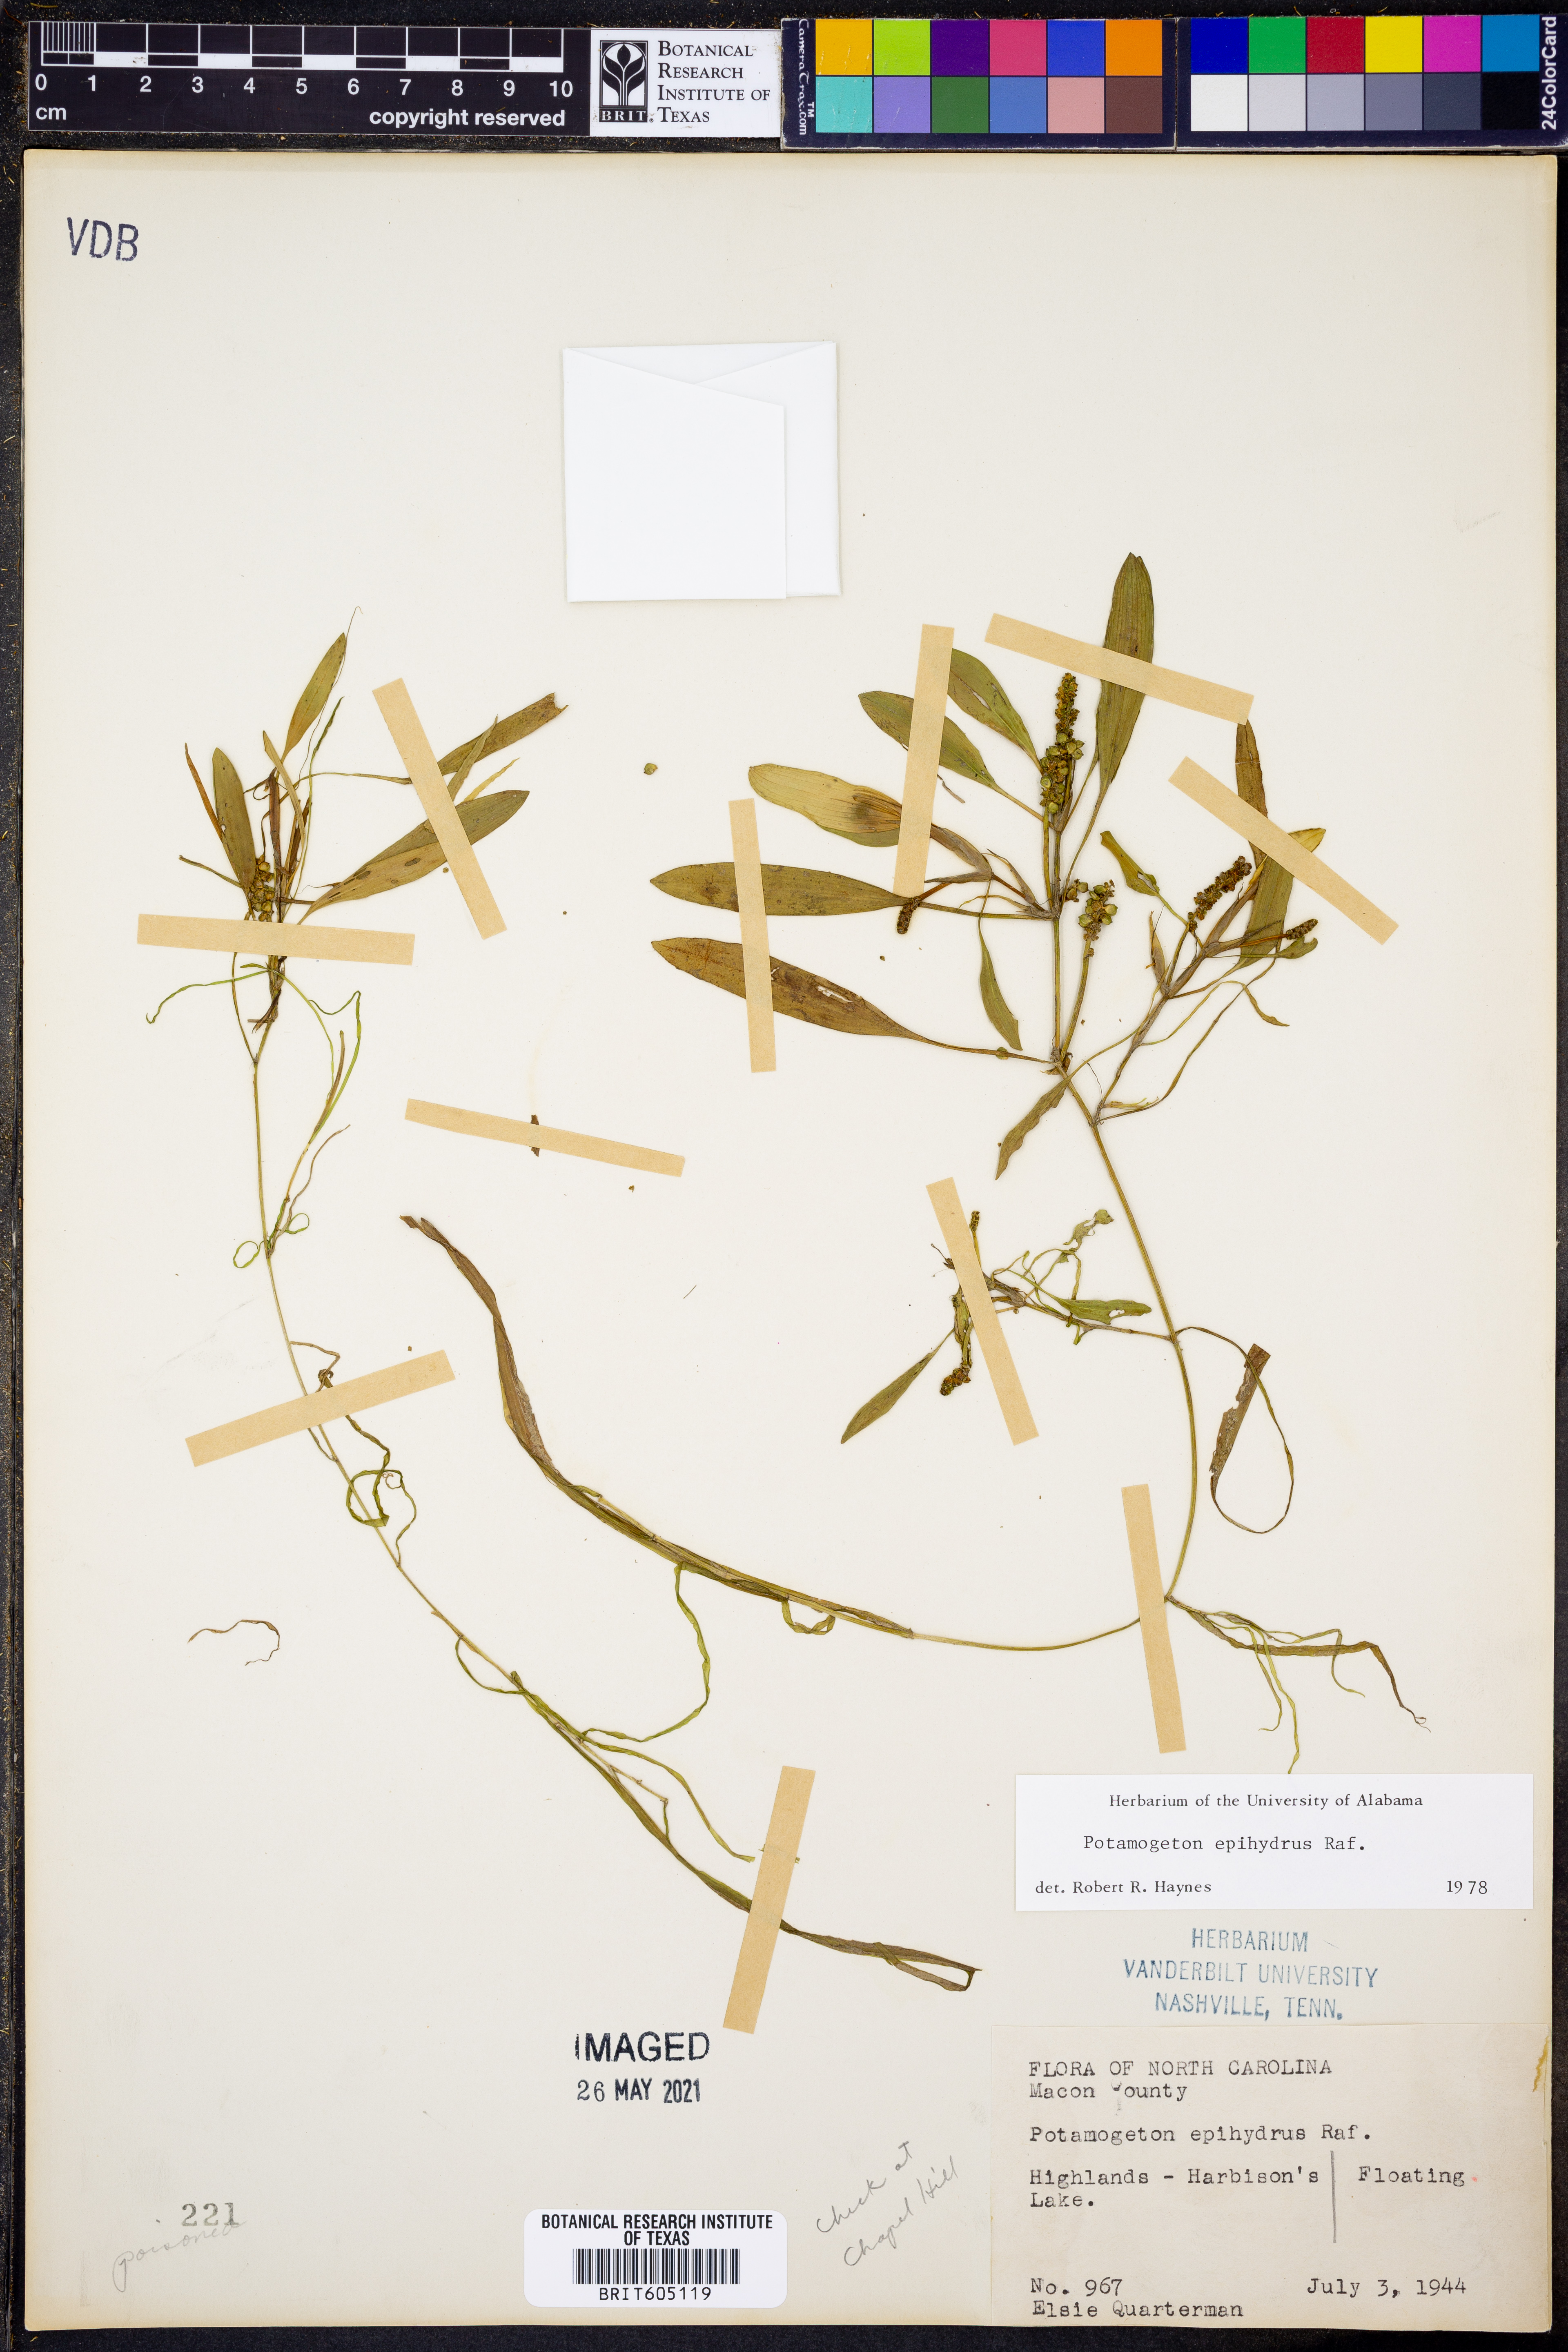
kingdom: Plantae
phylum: Tracheophyta
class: Liliopsida
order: Alismatales
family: Potamogetonaceae
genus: Potamogeton
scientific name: Potamogeton epihydrus
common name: American pondweed
